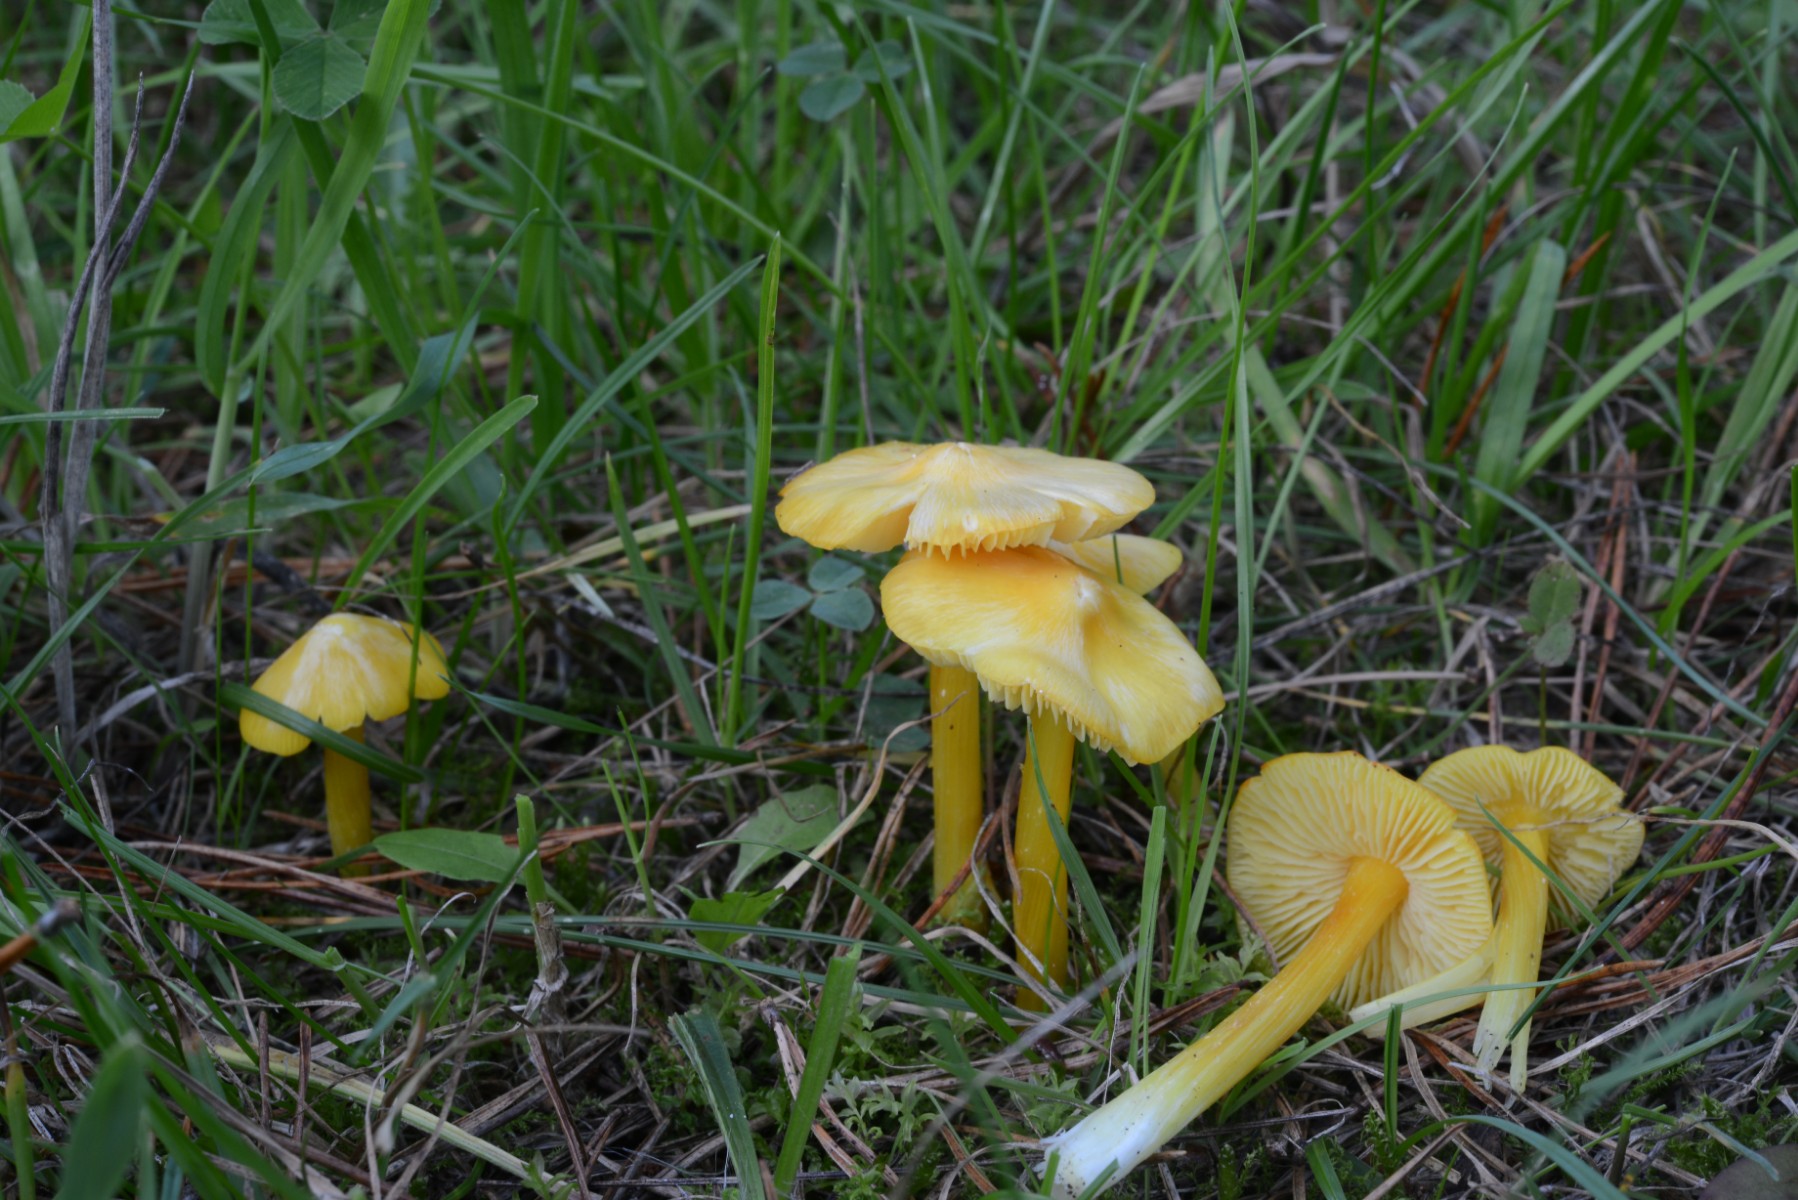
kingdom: Fungi
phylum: Basidiomycota
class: Agaricomycetes
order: Agaricales
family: Hygrophoraceae
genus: Hygrocybe
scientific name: Hygrocybe acutoconica
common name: spidspuklet vokshat
